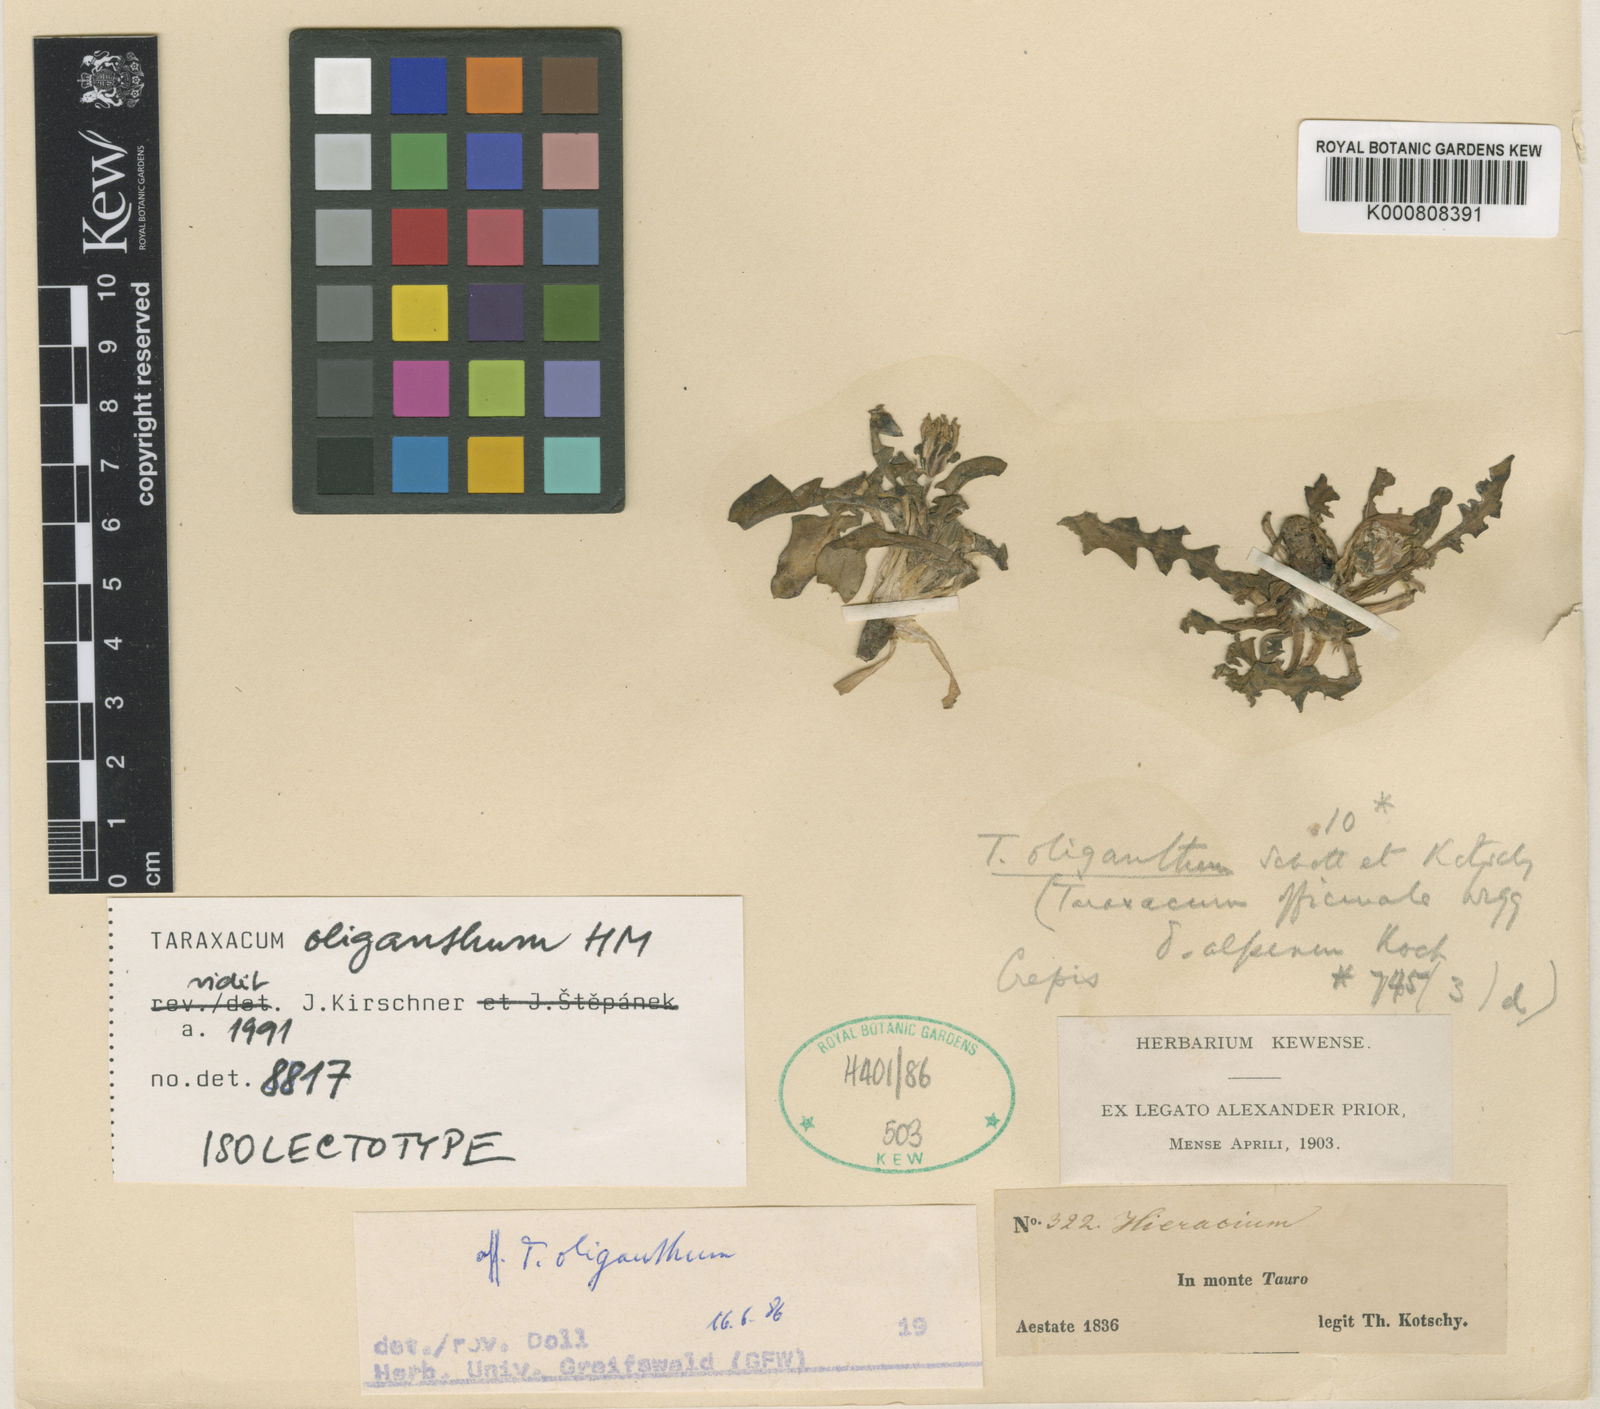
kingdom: Plantae
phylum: Tracheophyta
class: Magnoliopsida
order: Asterales
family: Asteraceae
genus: Taraxacum
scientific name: Taraxacum oliganthum
